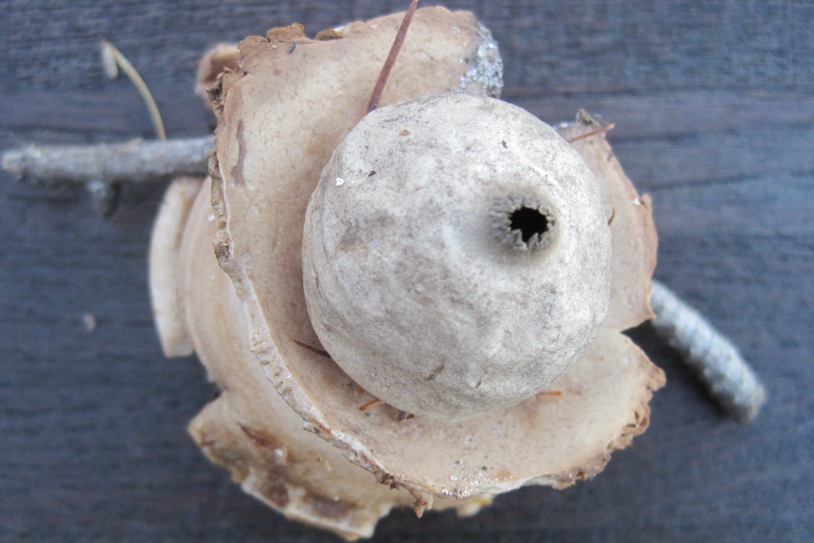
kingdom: Fungi
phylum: Basidiomycota
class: Agaricomycetes
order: Geastrales
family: Geastraceae
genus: Geastrum
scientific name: Geastrum michelianum
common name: kødet stjernebold
